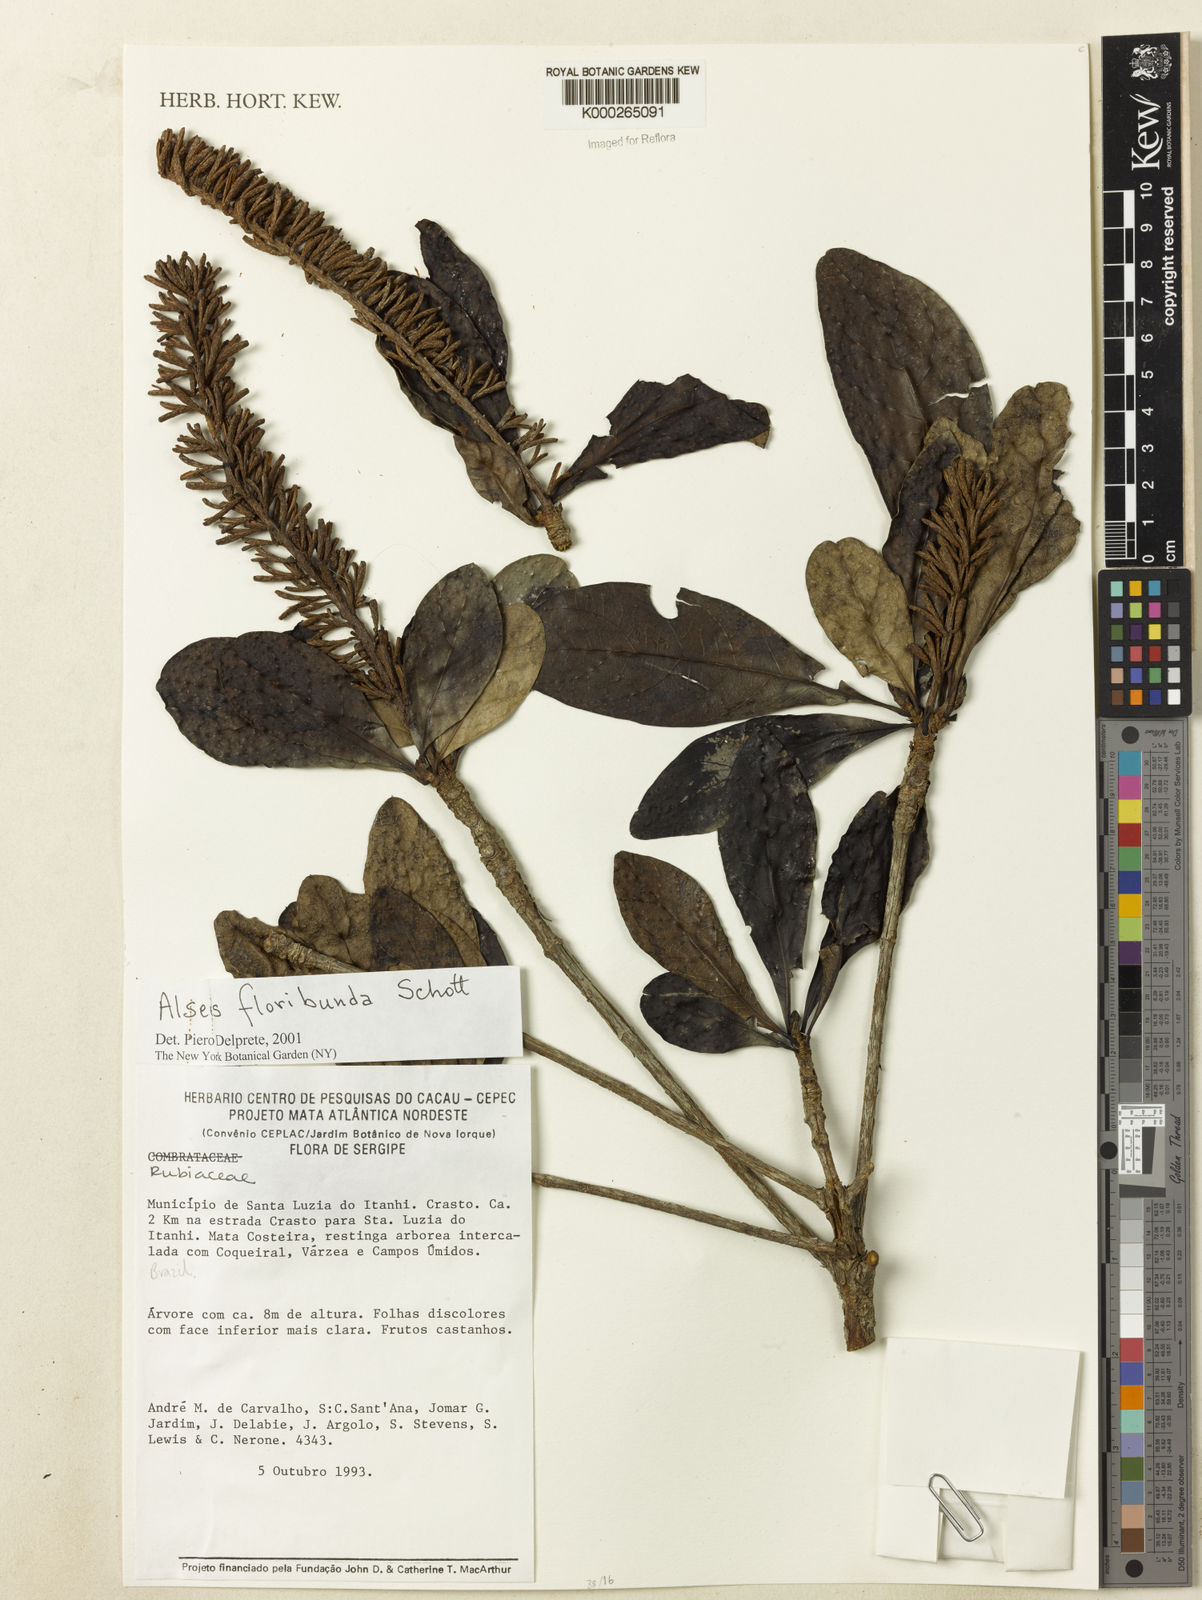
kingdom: Plantae
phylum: Tracheophyta
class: Magnoliopsida
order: Gentianales
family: Rubiaceae
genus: Alseis
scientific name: Alseis floribunda
